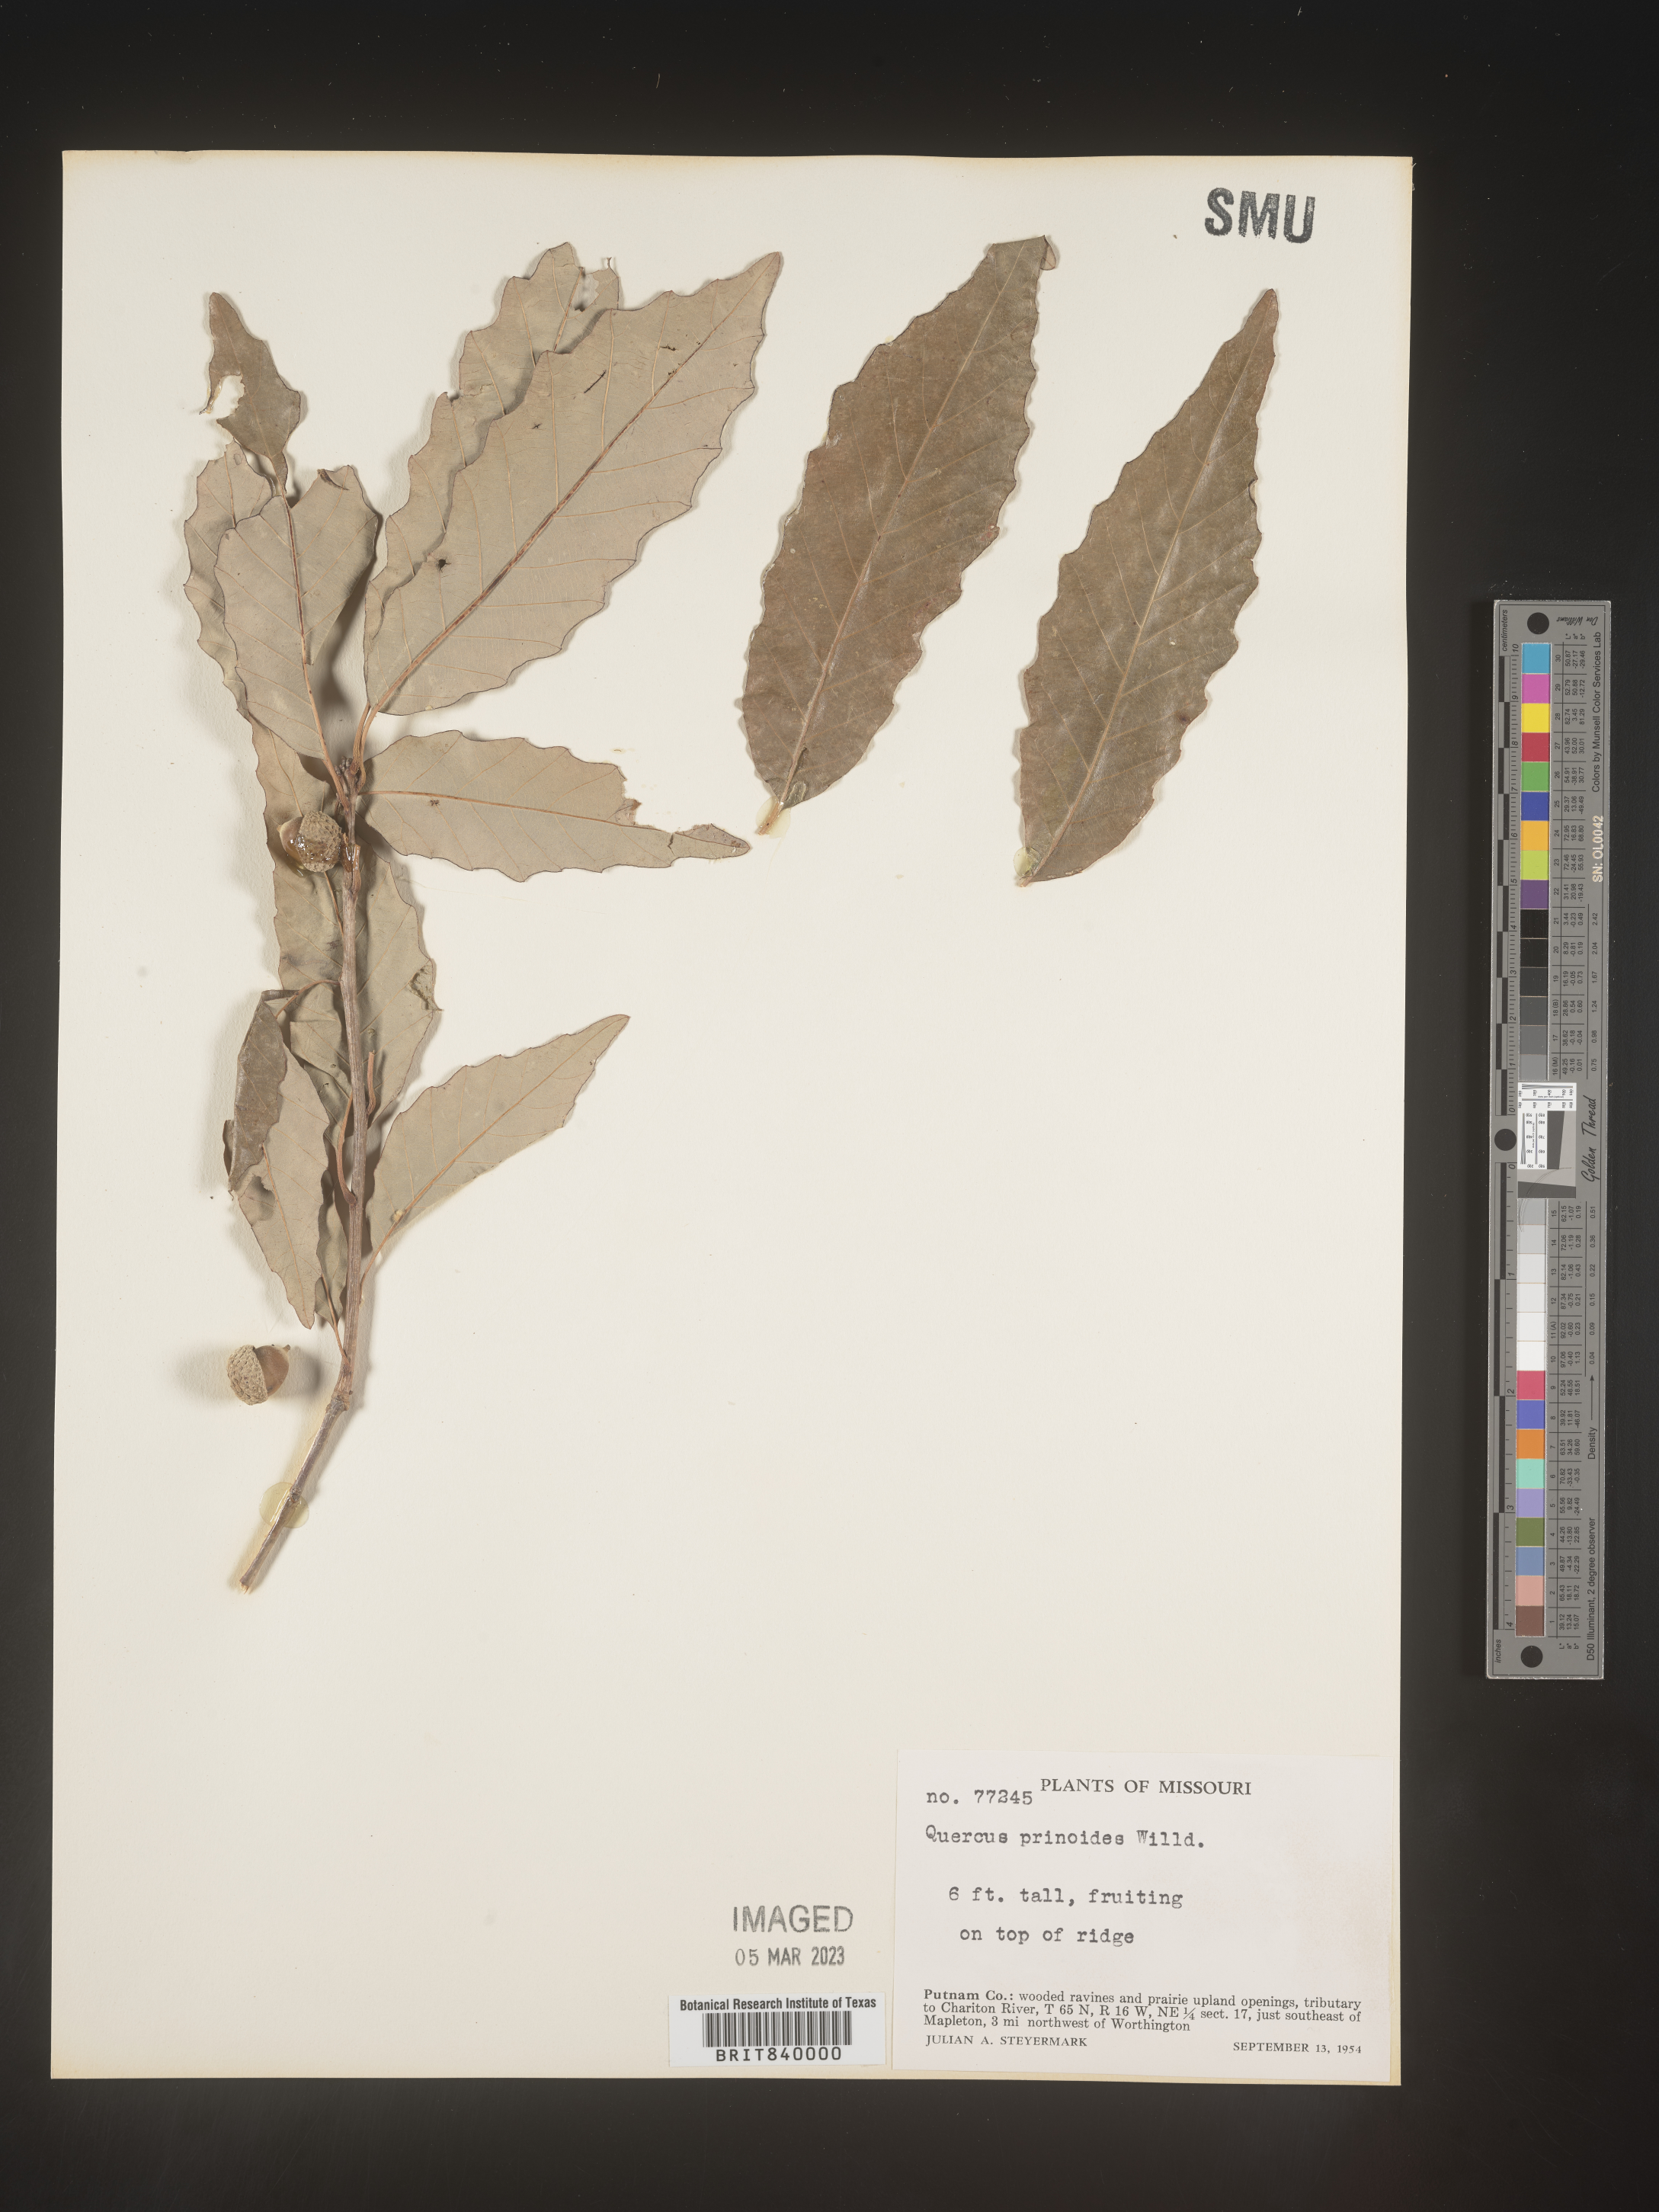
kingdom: Plantae
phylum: Tracheophyta
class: Magnoliopsida
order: Fagales
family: Fagaceae
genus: Quercus
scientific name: Quercus prinoides
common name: Dwarf chinkapin oak
